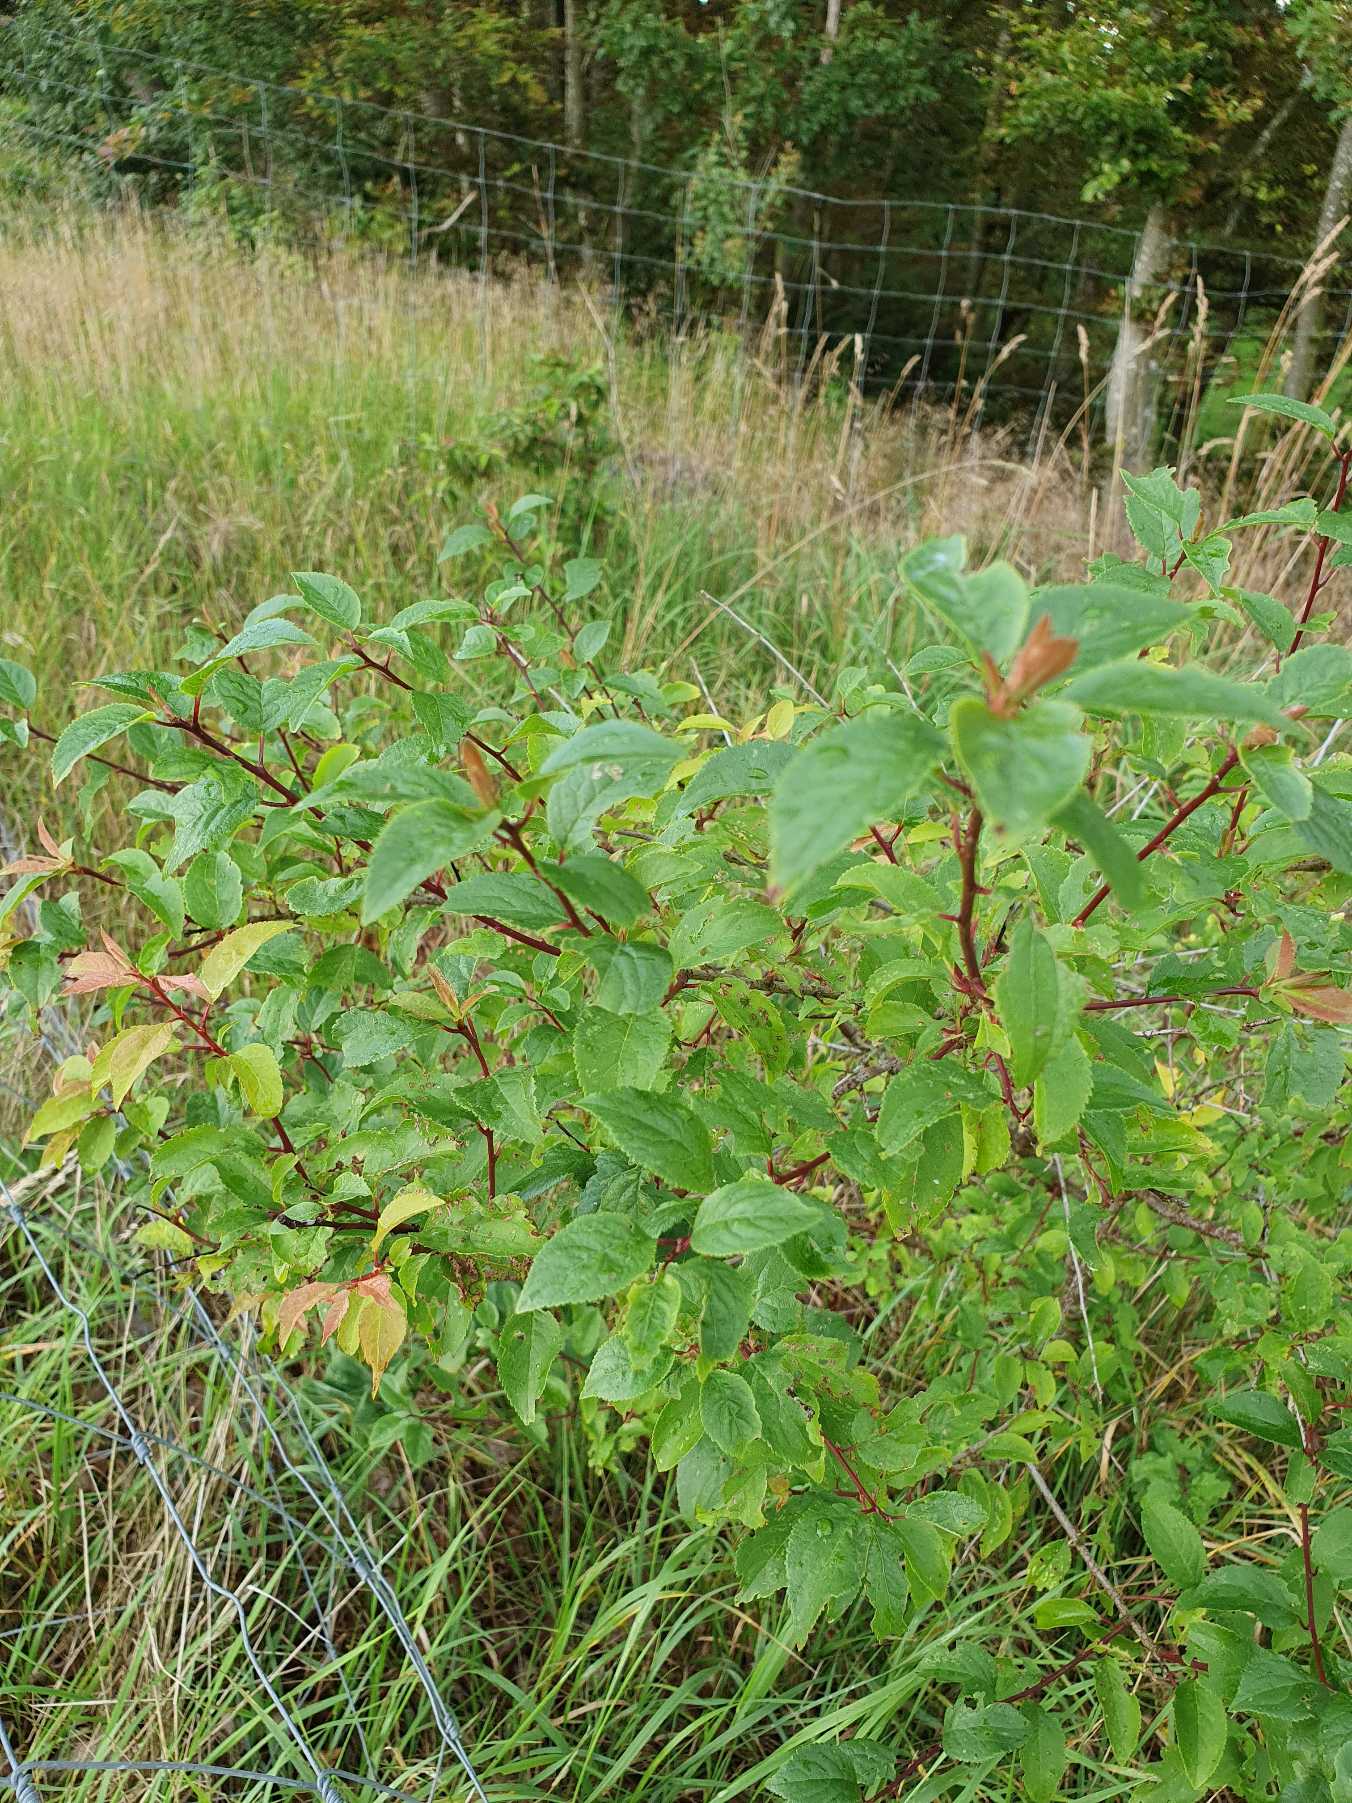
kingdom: Plantae
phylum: Tracheophyta
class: Magnoliopsida
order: Rosales
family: Rosaceae
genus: Prunus
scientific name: Prunus cerasifera
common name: Mirabel
